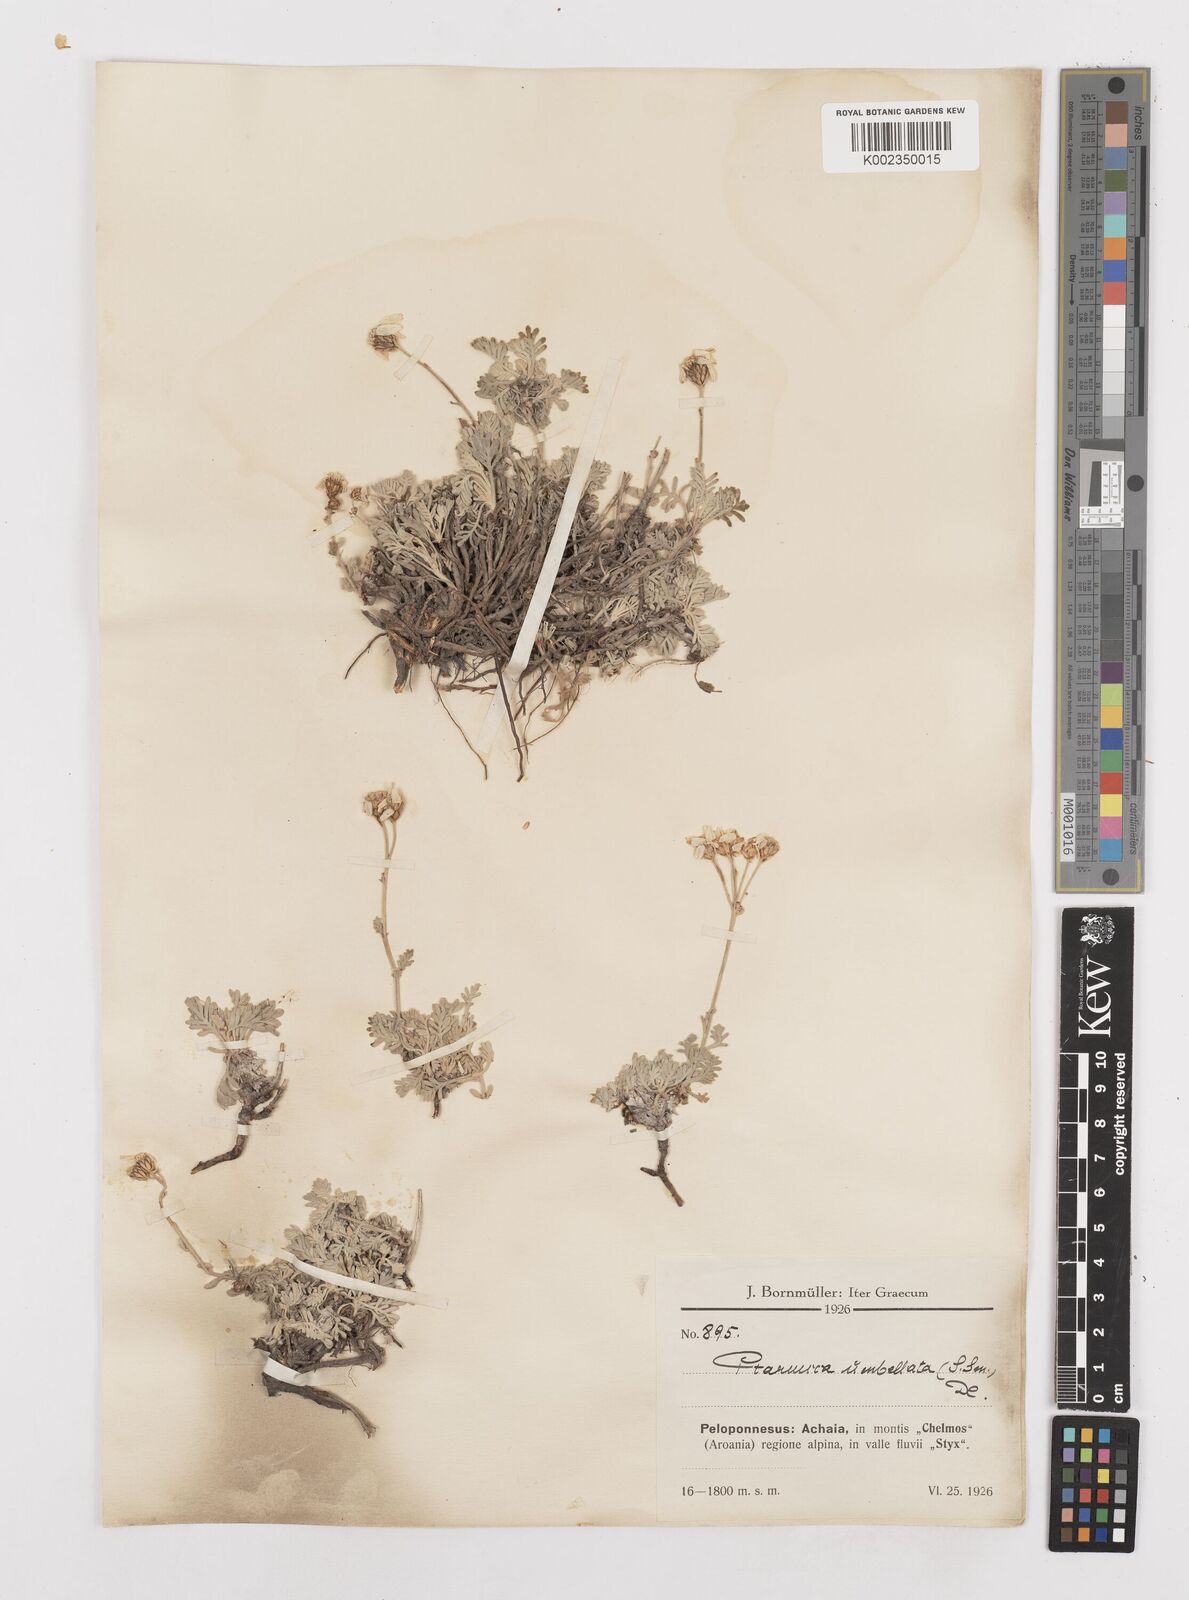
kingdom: Plantae
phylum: Tracheophyta
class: Magnoliopsida
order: Asterales
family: Asteraceae
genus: Achillea
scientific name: Achillea umbellata
